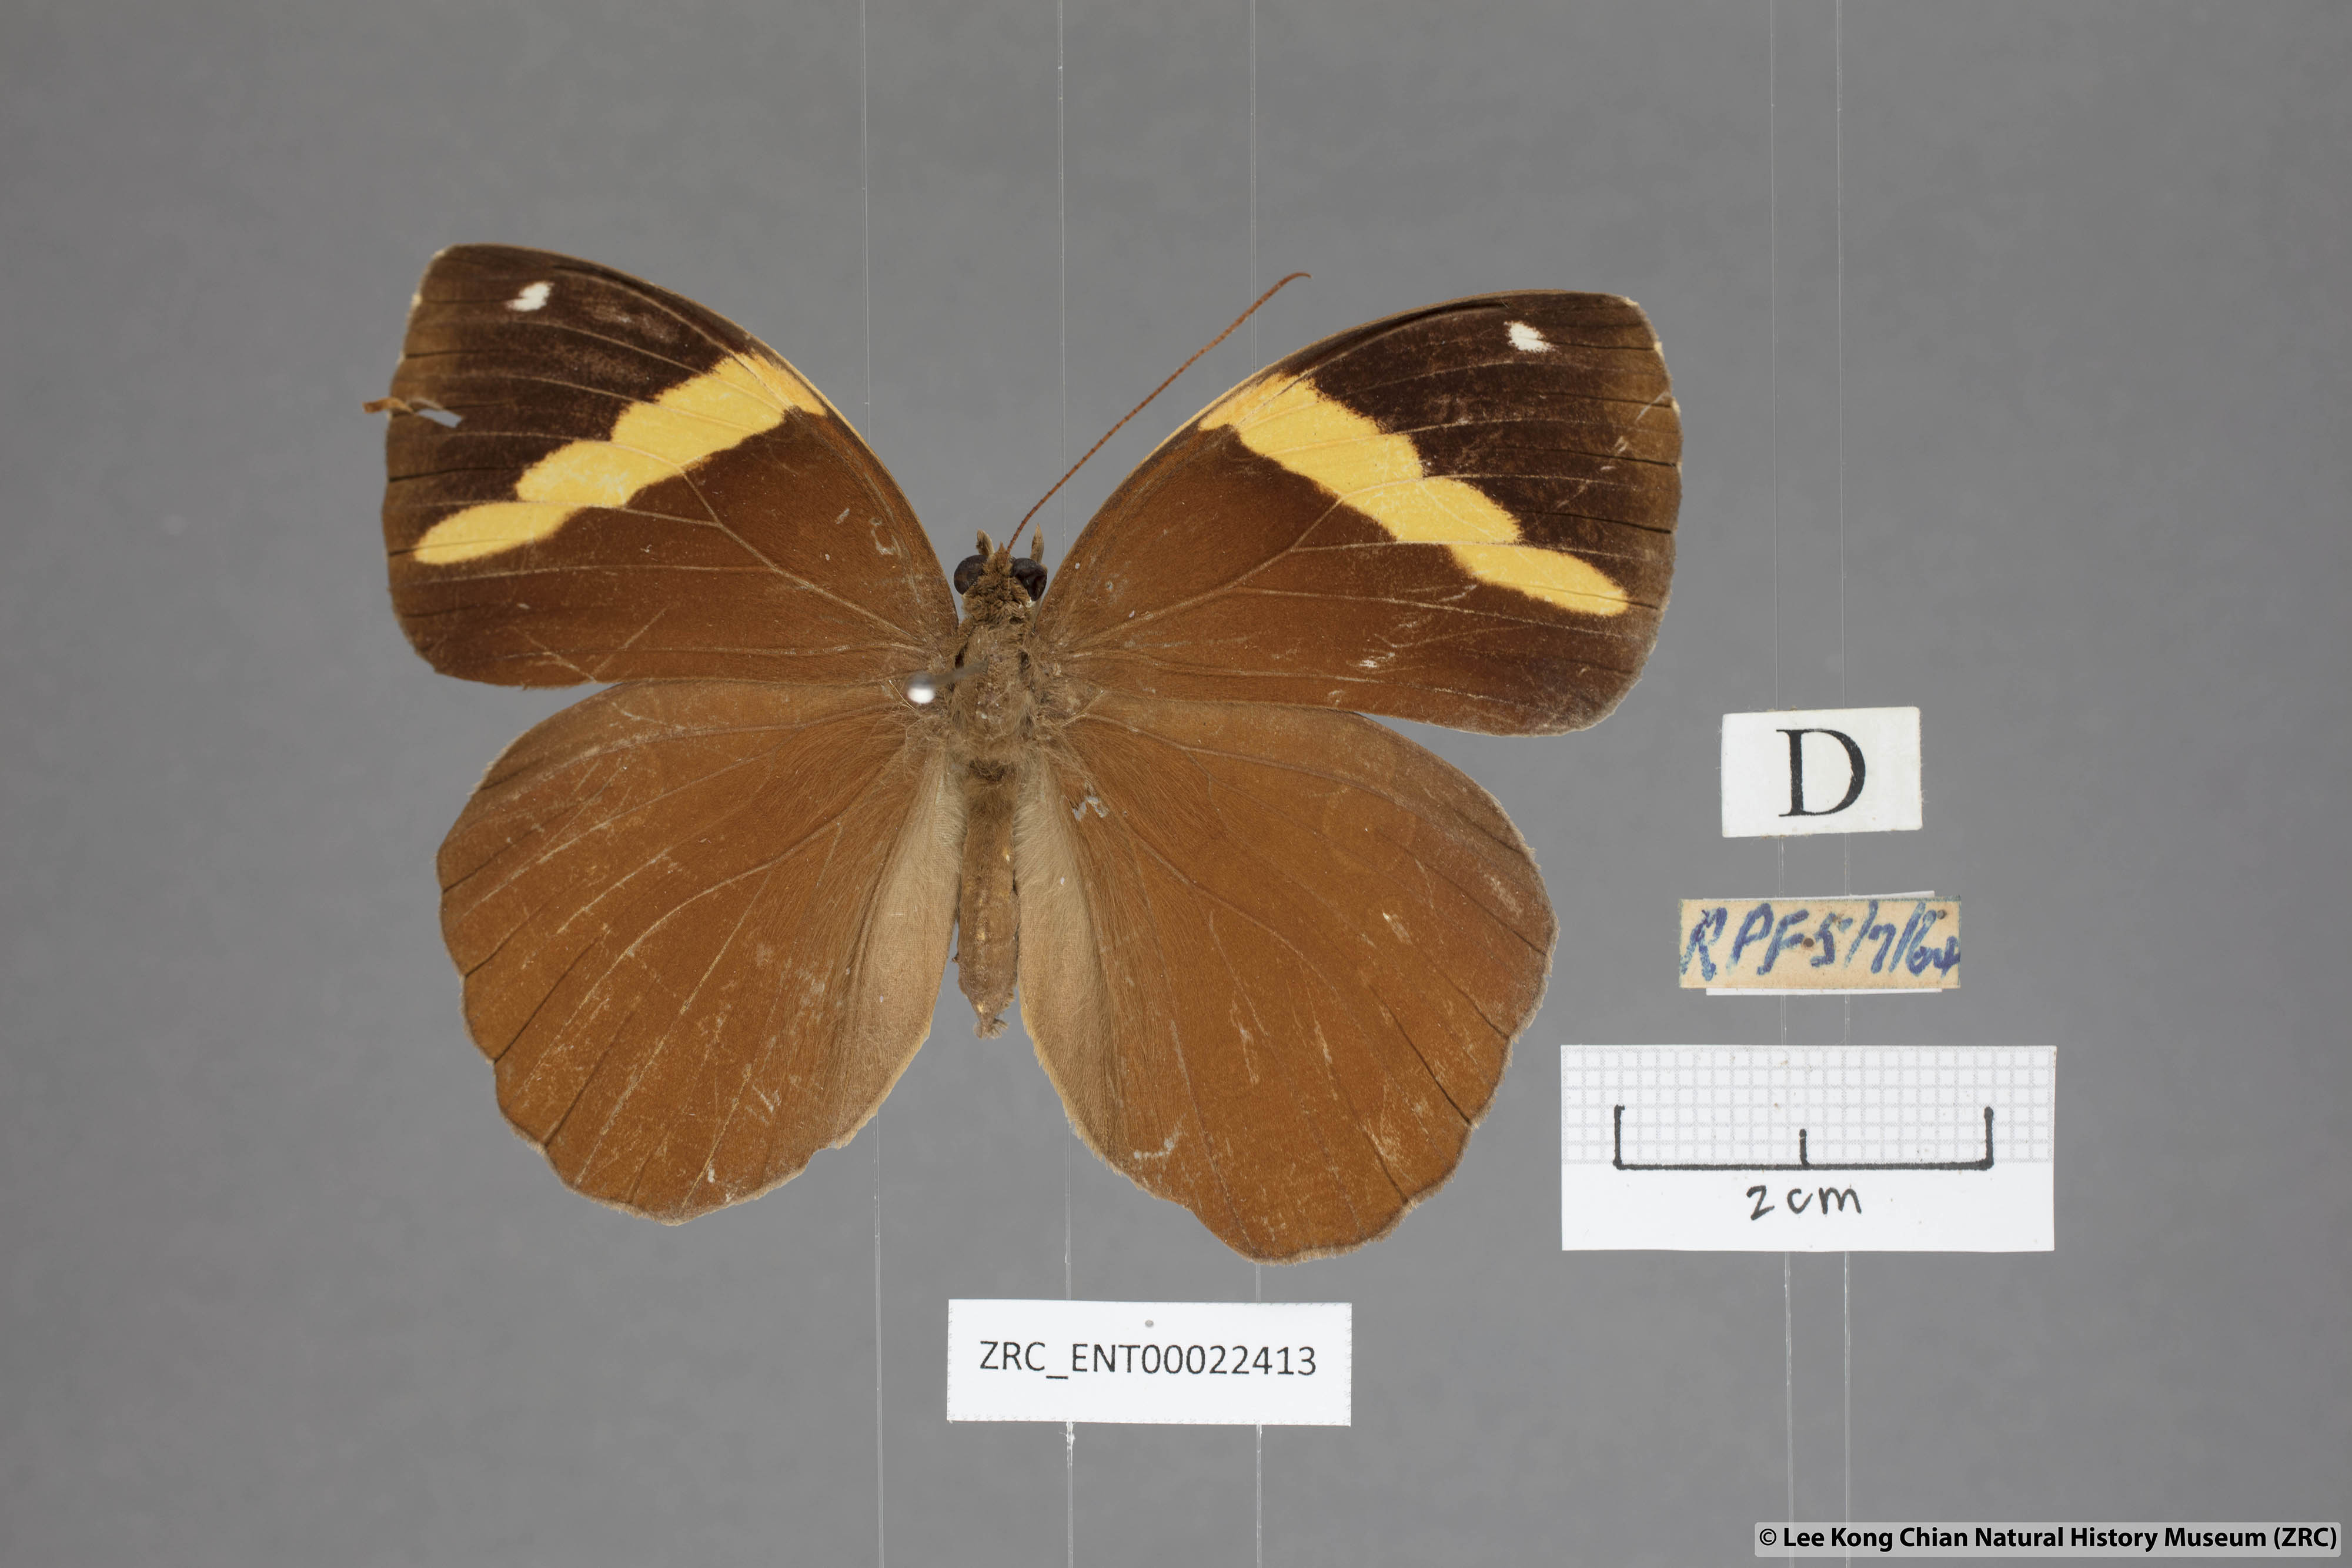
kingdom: Animalia
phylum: Arthropoda
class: Insecta
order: Lepidoptera
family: Nymphalidae
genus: Xanthotaenia
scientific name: Xanthotaenia busiris
